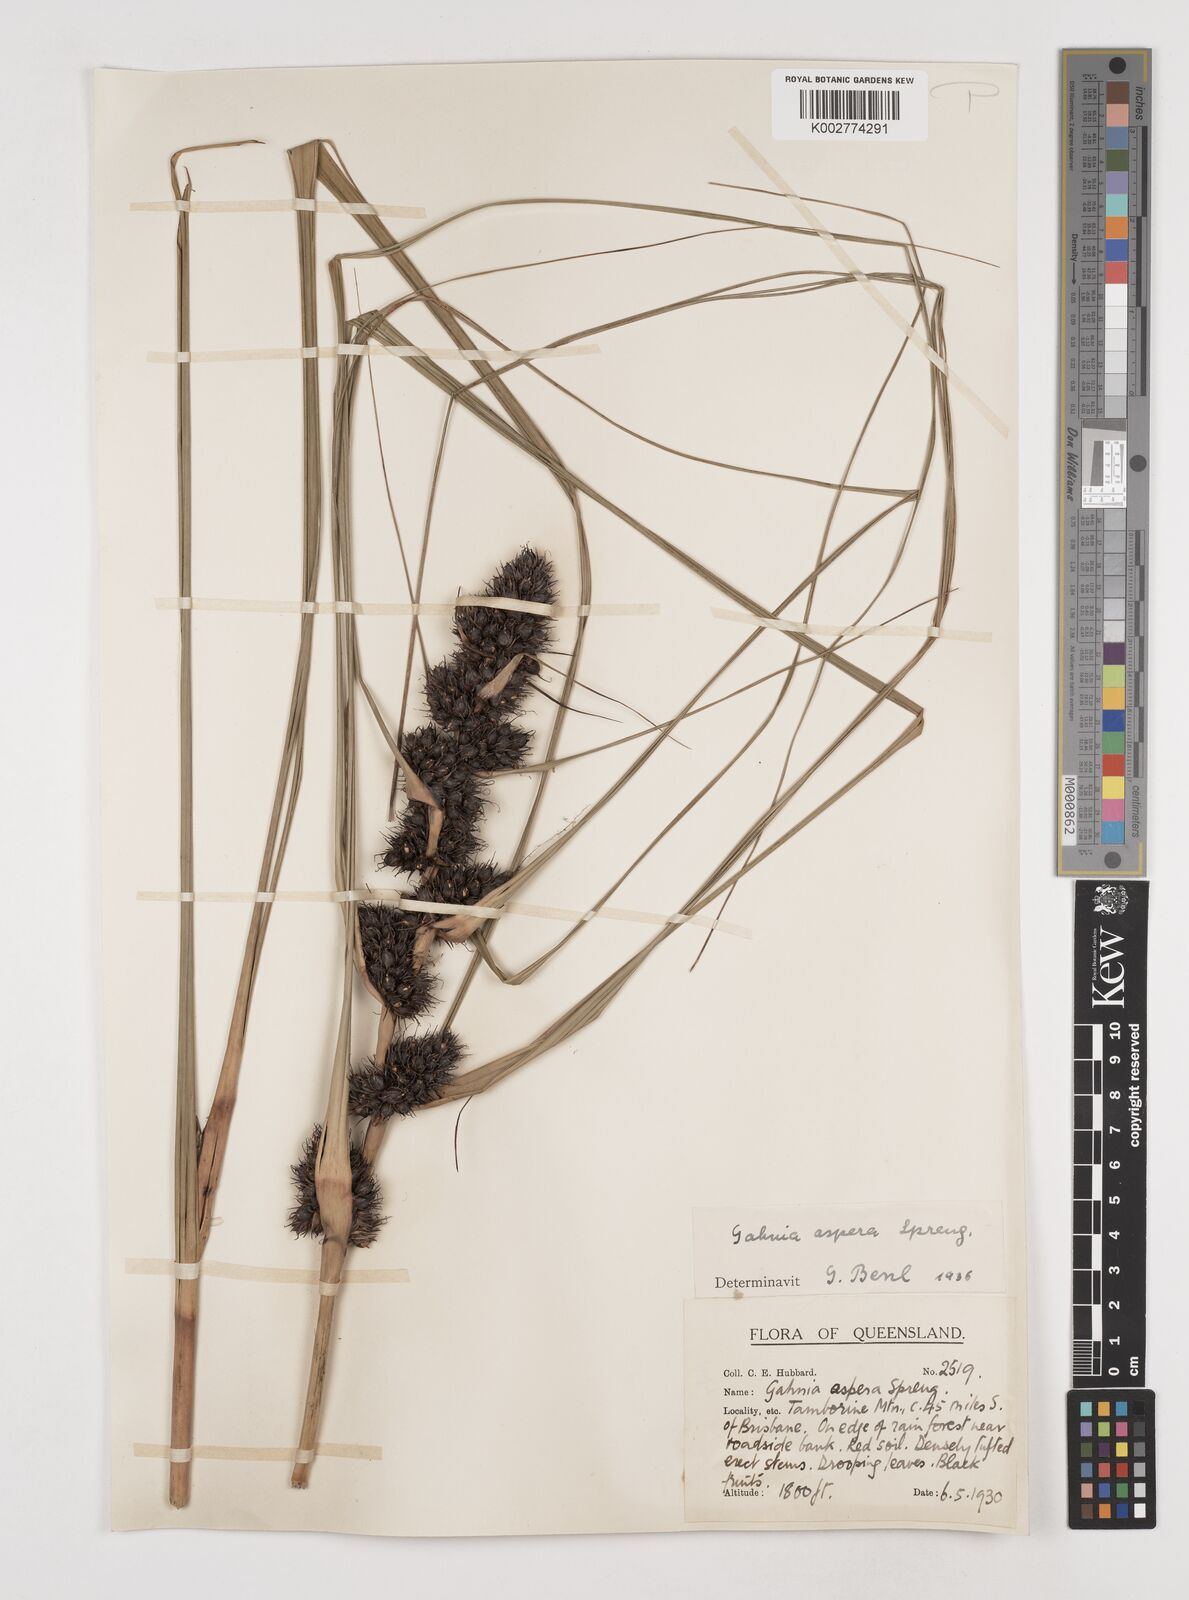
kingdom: Plantae
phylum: Tracheophyta
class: Liliopsida
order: Poales
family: Cyperaceae
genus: Gahnia
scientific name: Gahnia aspera
